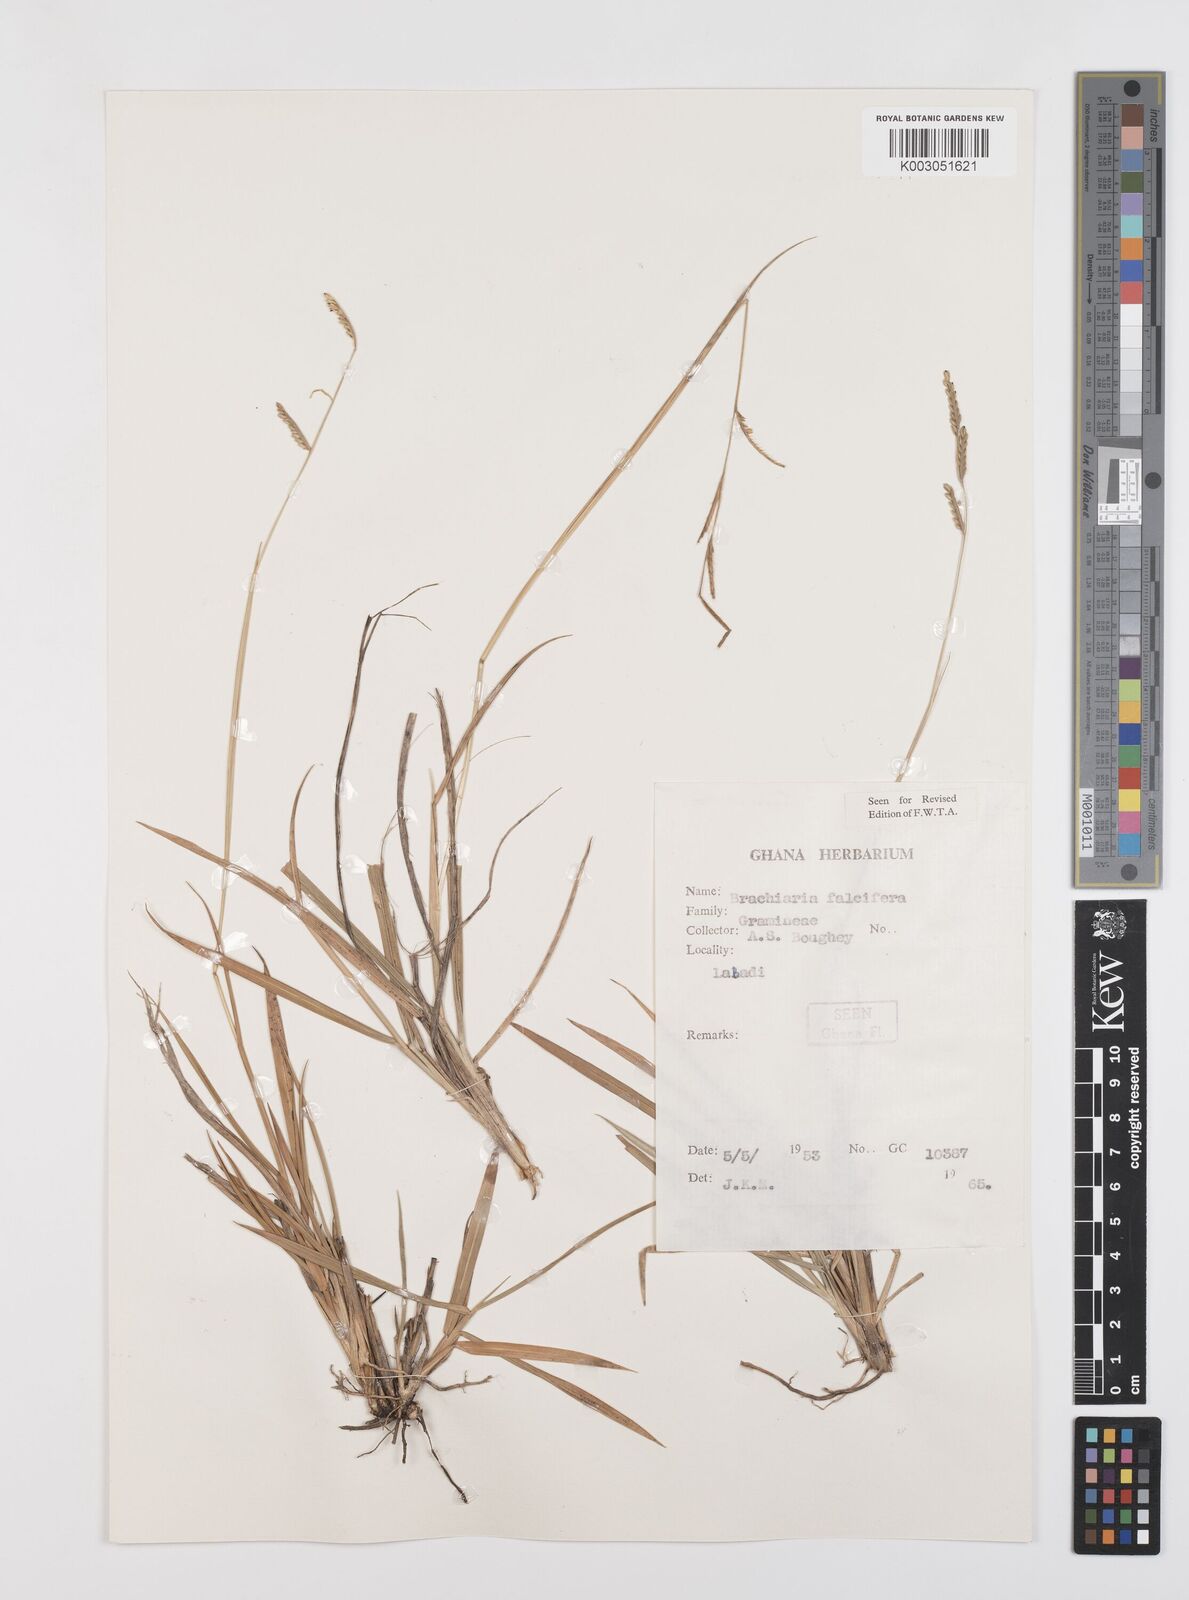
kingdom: Plantae
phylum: Tracheophyta
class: Liliopsida
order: Poales
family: Poaceae
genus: Urochloa
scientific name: Urochloa jubata
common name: Buffalograss
